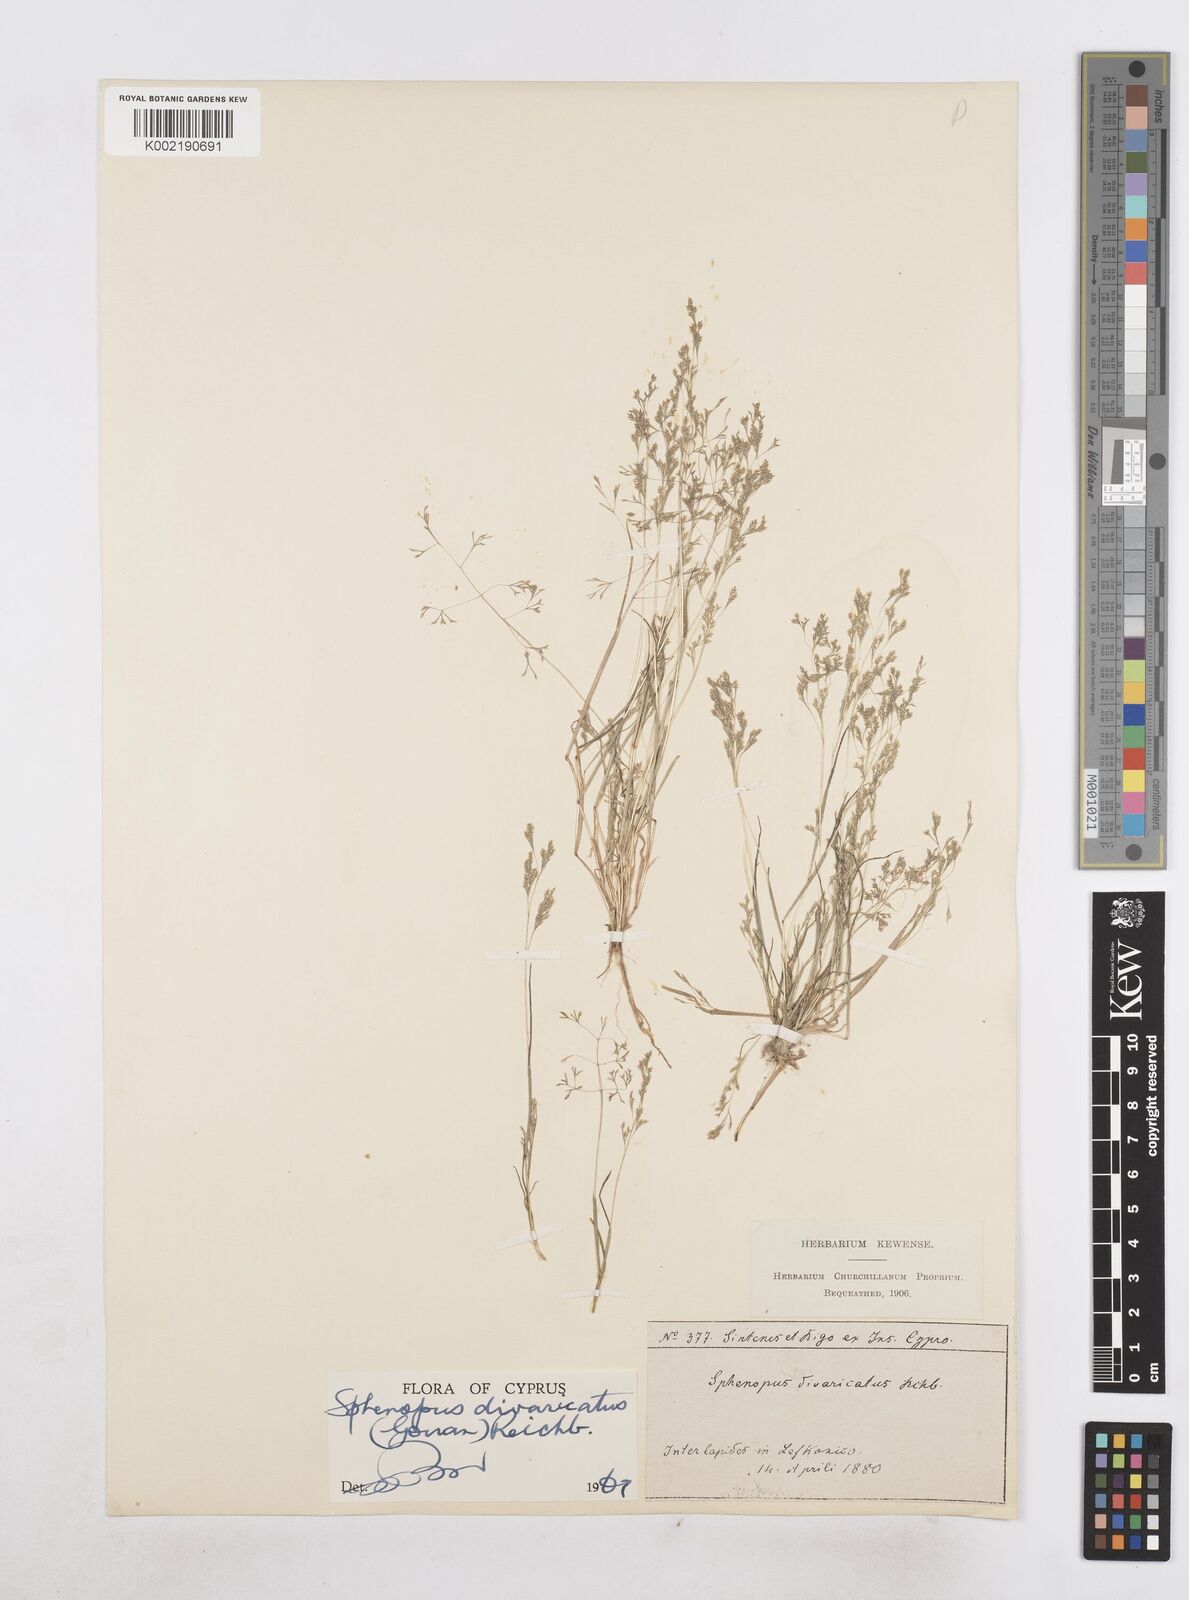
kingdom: Plantae
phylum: Tracheophyta
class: Liliopsida
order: Poales
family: Poaceae
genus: Sphenopus
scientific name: Sphenopus divaricatus
